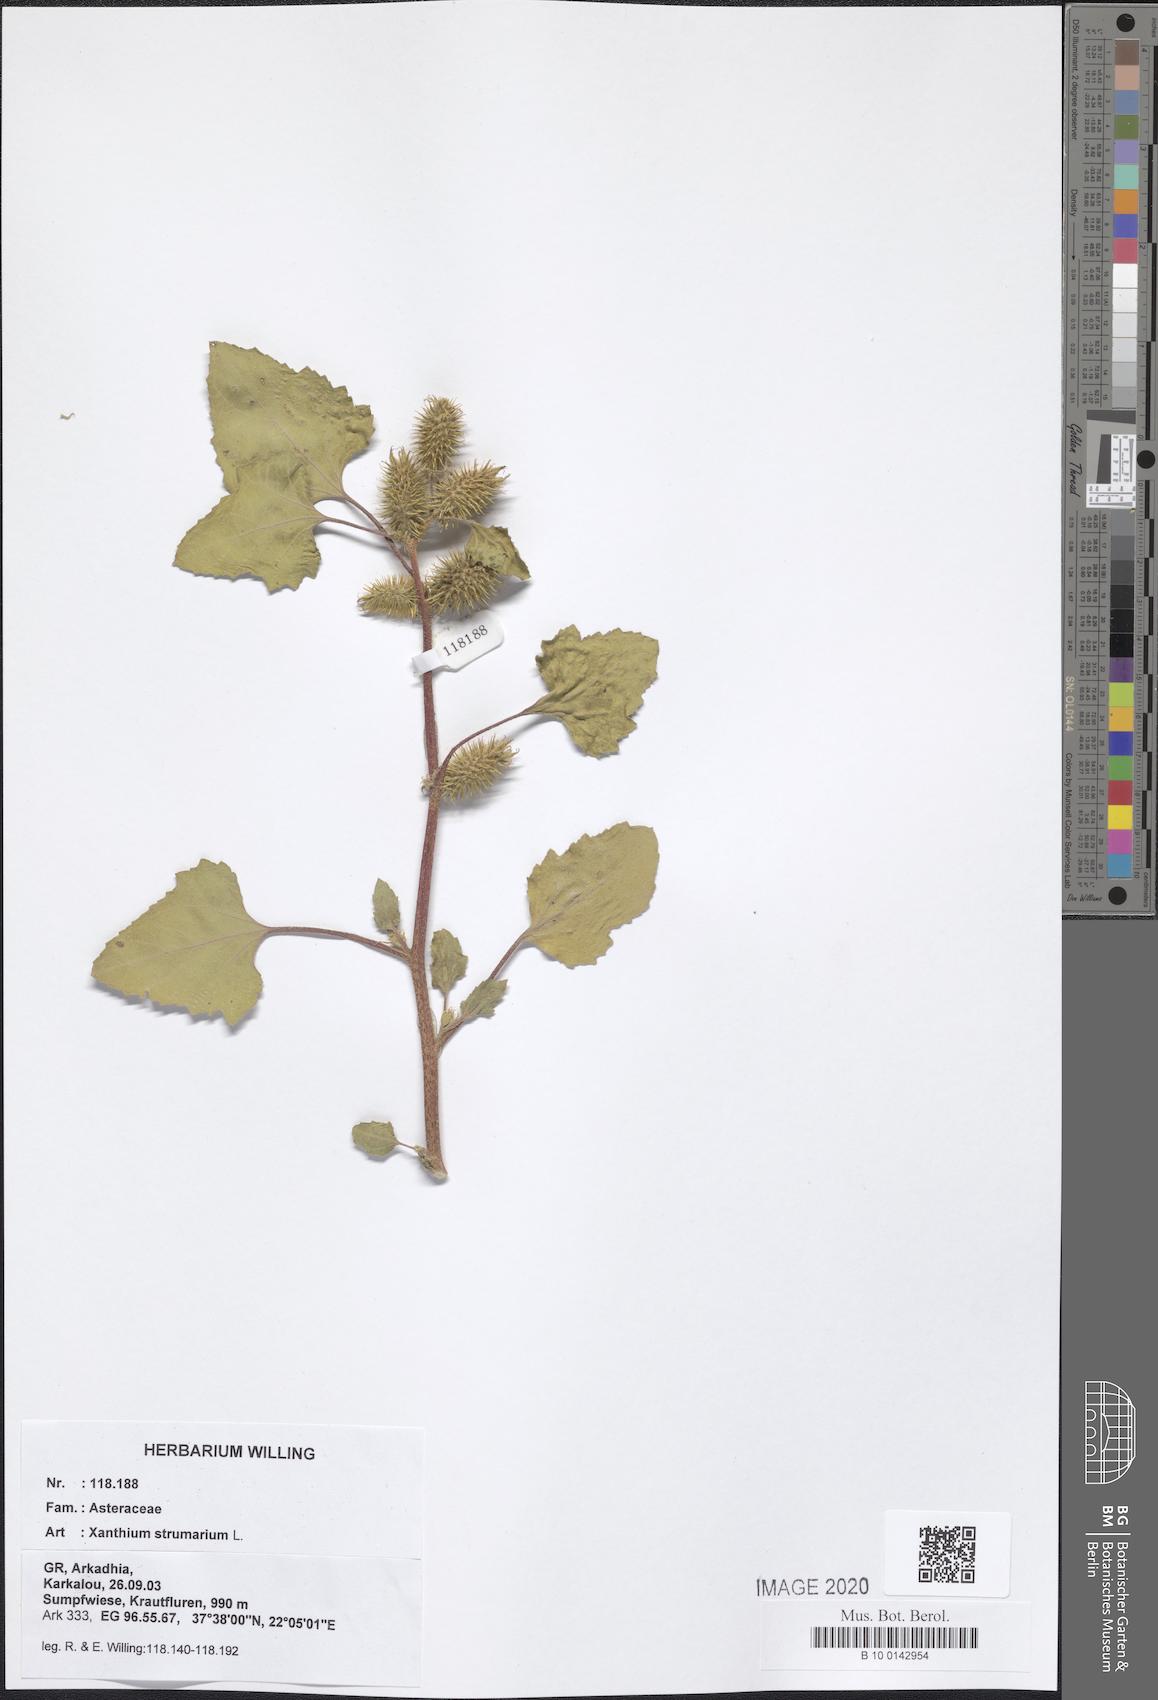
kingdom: Plantae
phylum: Tracheophyta
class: Magnoliopsida
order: Asterales
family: Asteraceae
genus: Xanthium
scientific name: Xanthium strumarium
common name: Rough cocklebur
